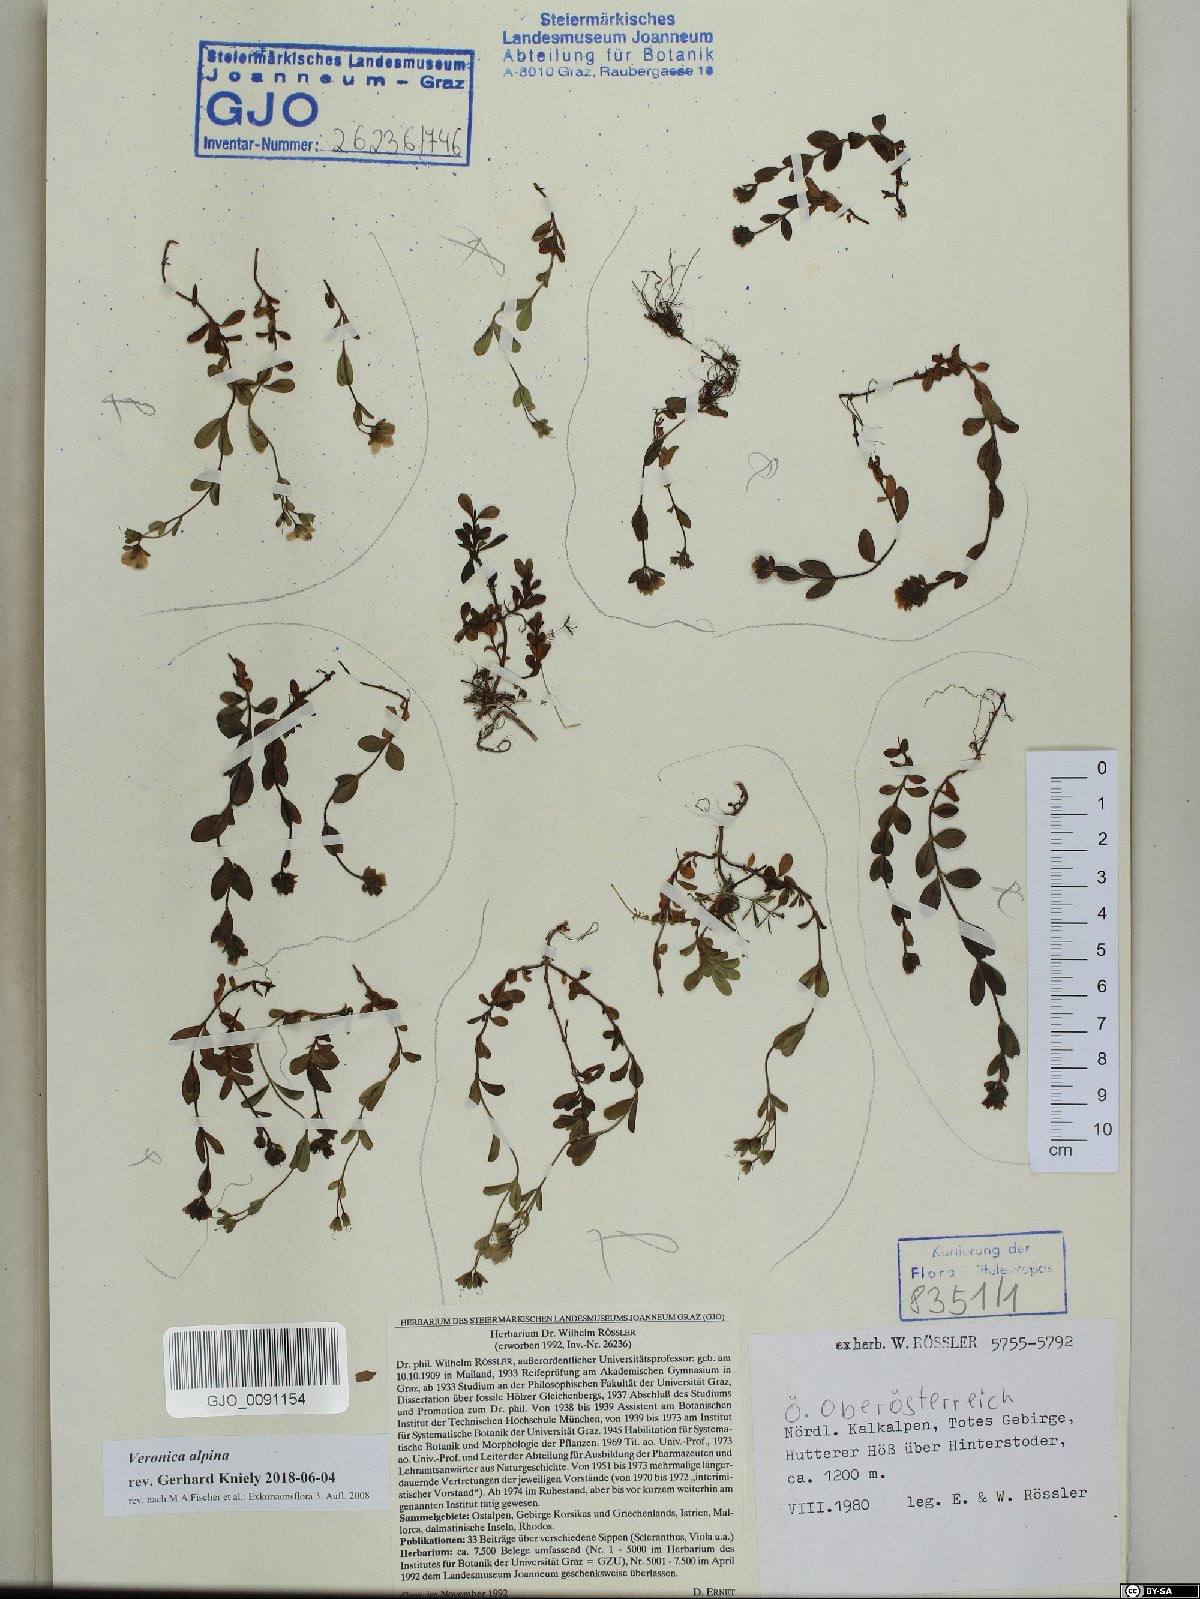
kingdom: Plantae
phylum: Tracheophyta
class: Magnoliopsida
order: Lamiales
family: Plantaginaceae
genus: Veronica
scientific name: Veronica alpina
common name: Alpine speedwell
